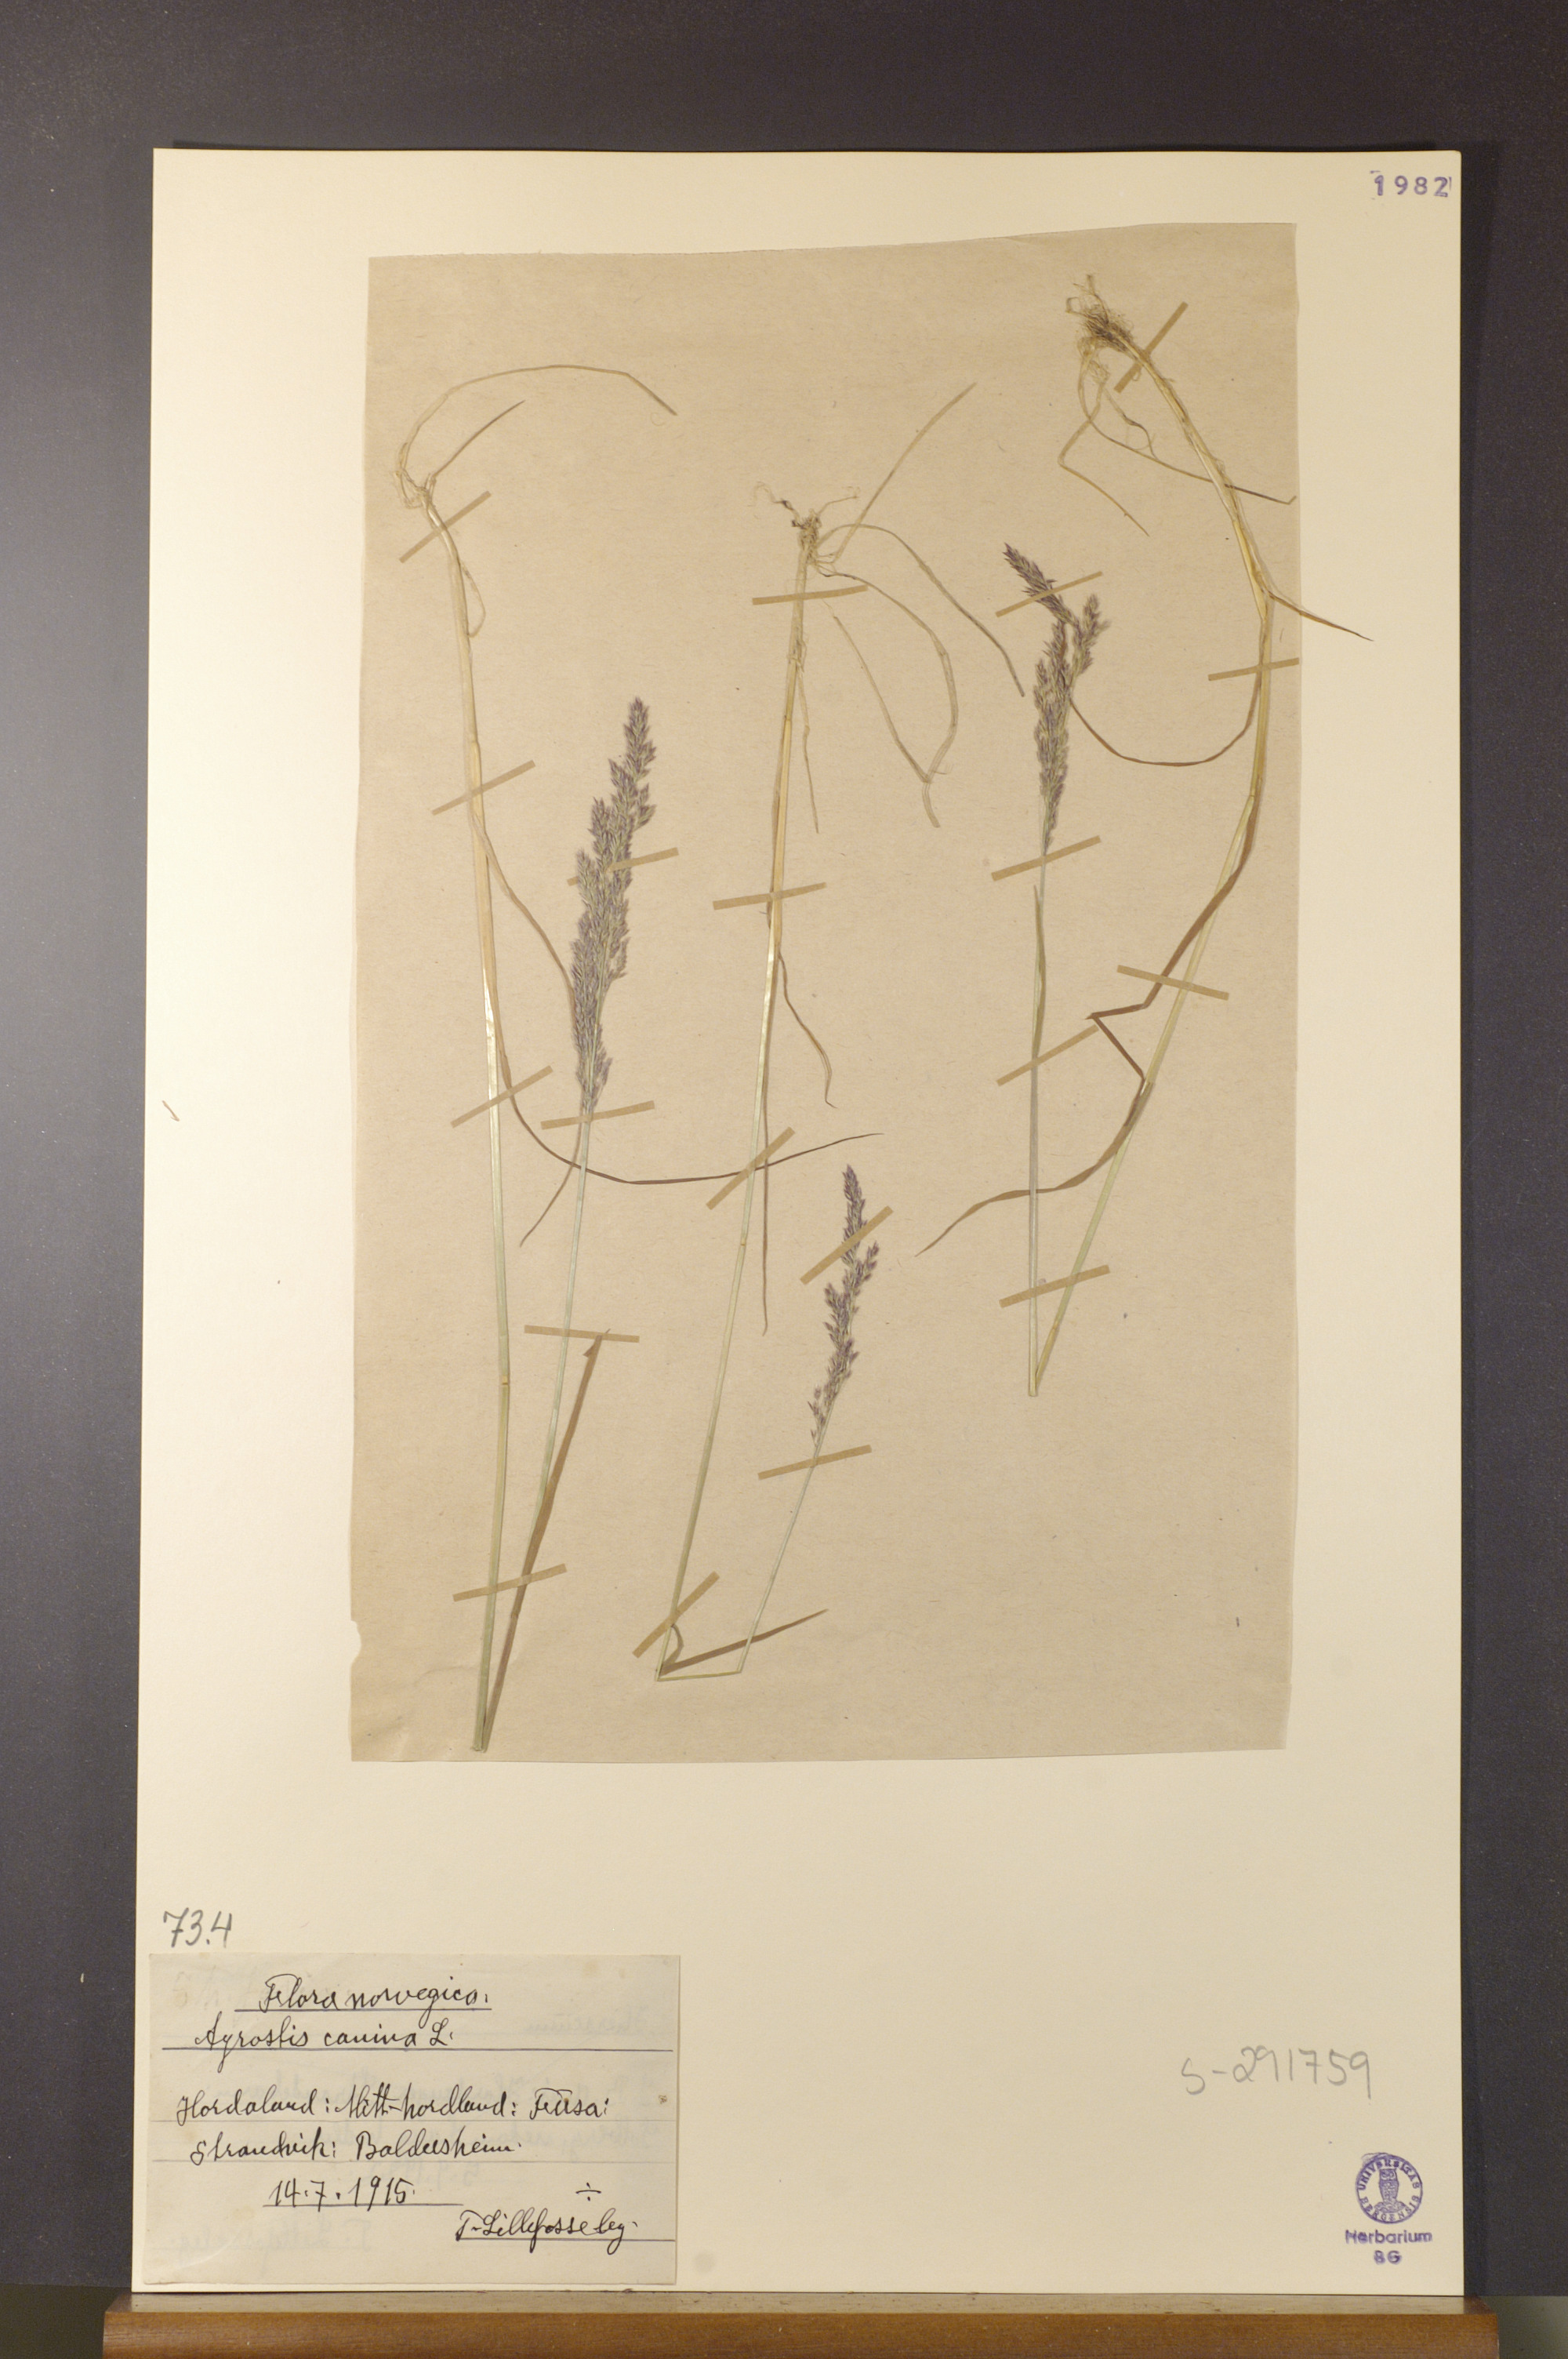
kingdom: Plantae
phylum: Tracheophyta
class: Liliopsida
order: Poales
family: Poaceae
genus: Agrostis
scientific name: Agrostis canina
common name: Velvet bent
